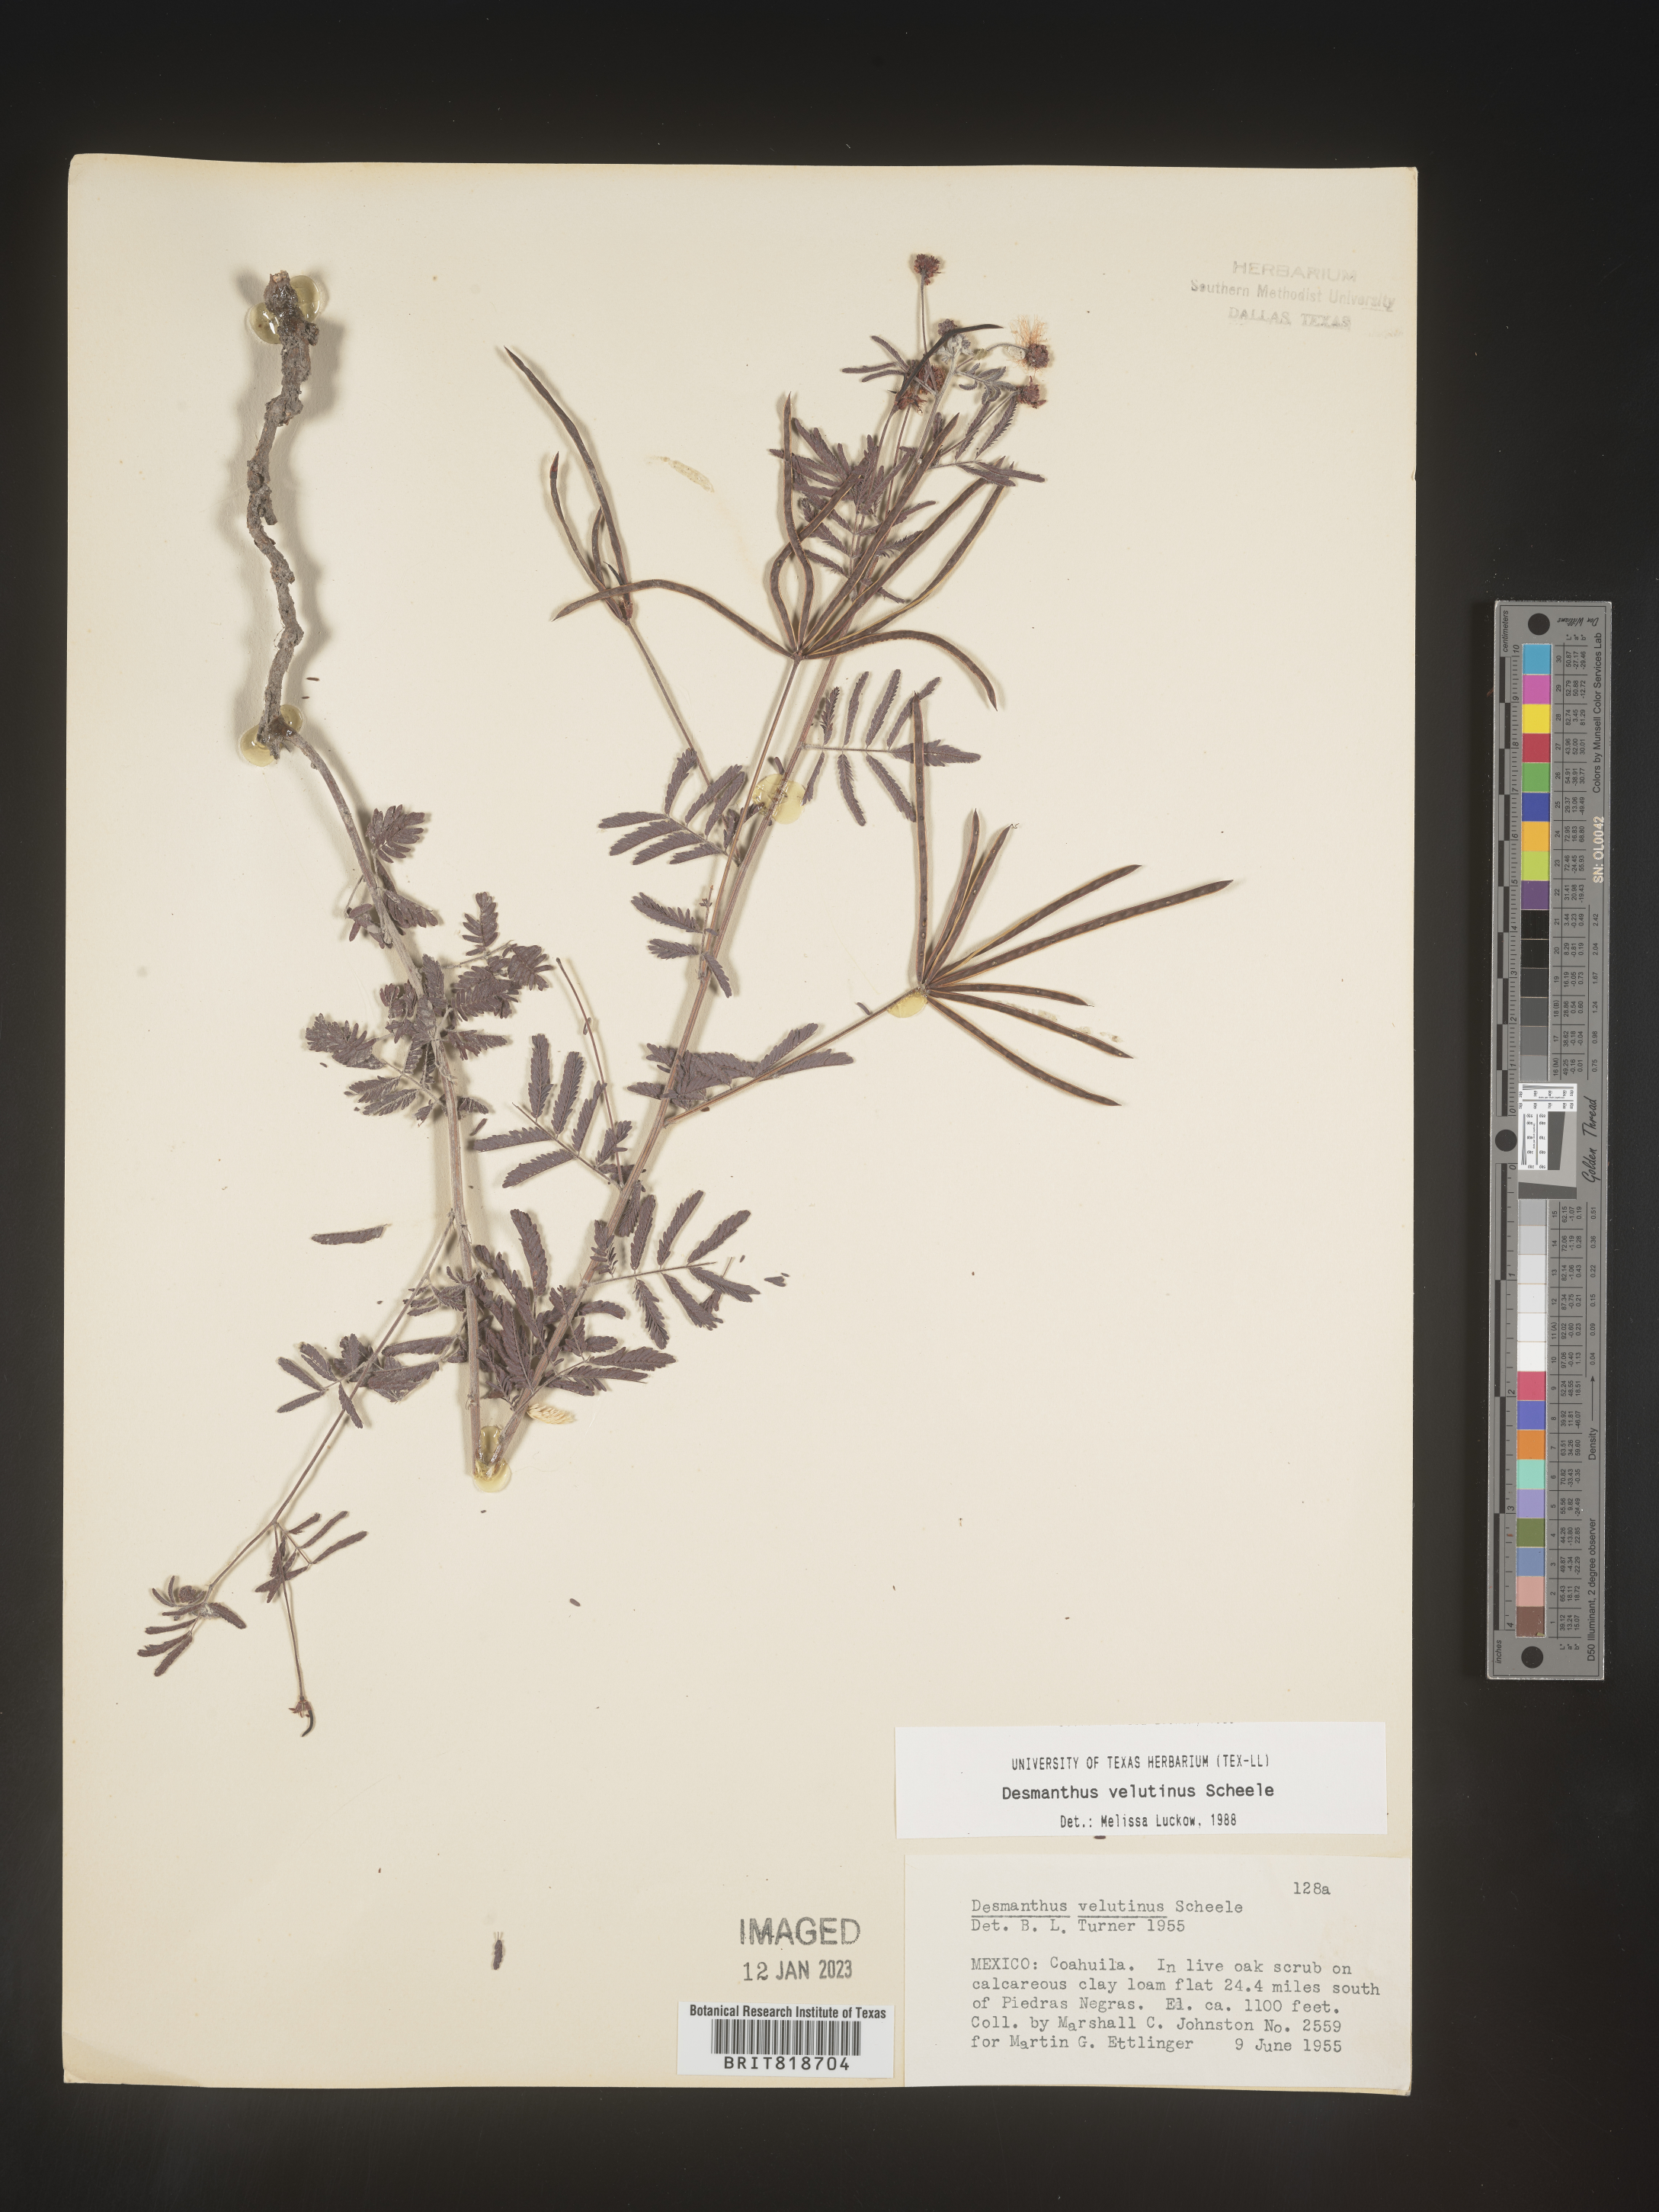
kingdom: Plantae
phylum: Tracheophyta
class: Magnoliopsida
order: Fabales
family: Fabaceae
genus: Desmanthus
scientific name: Desmanthus
